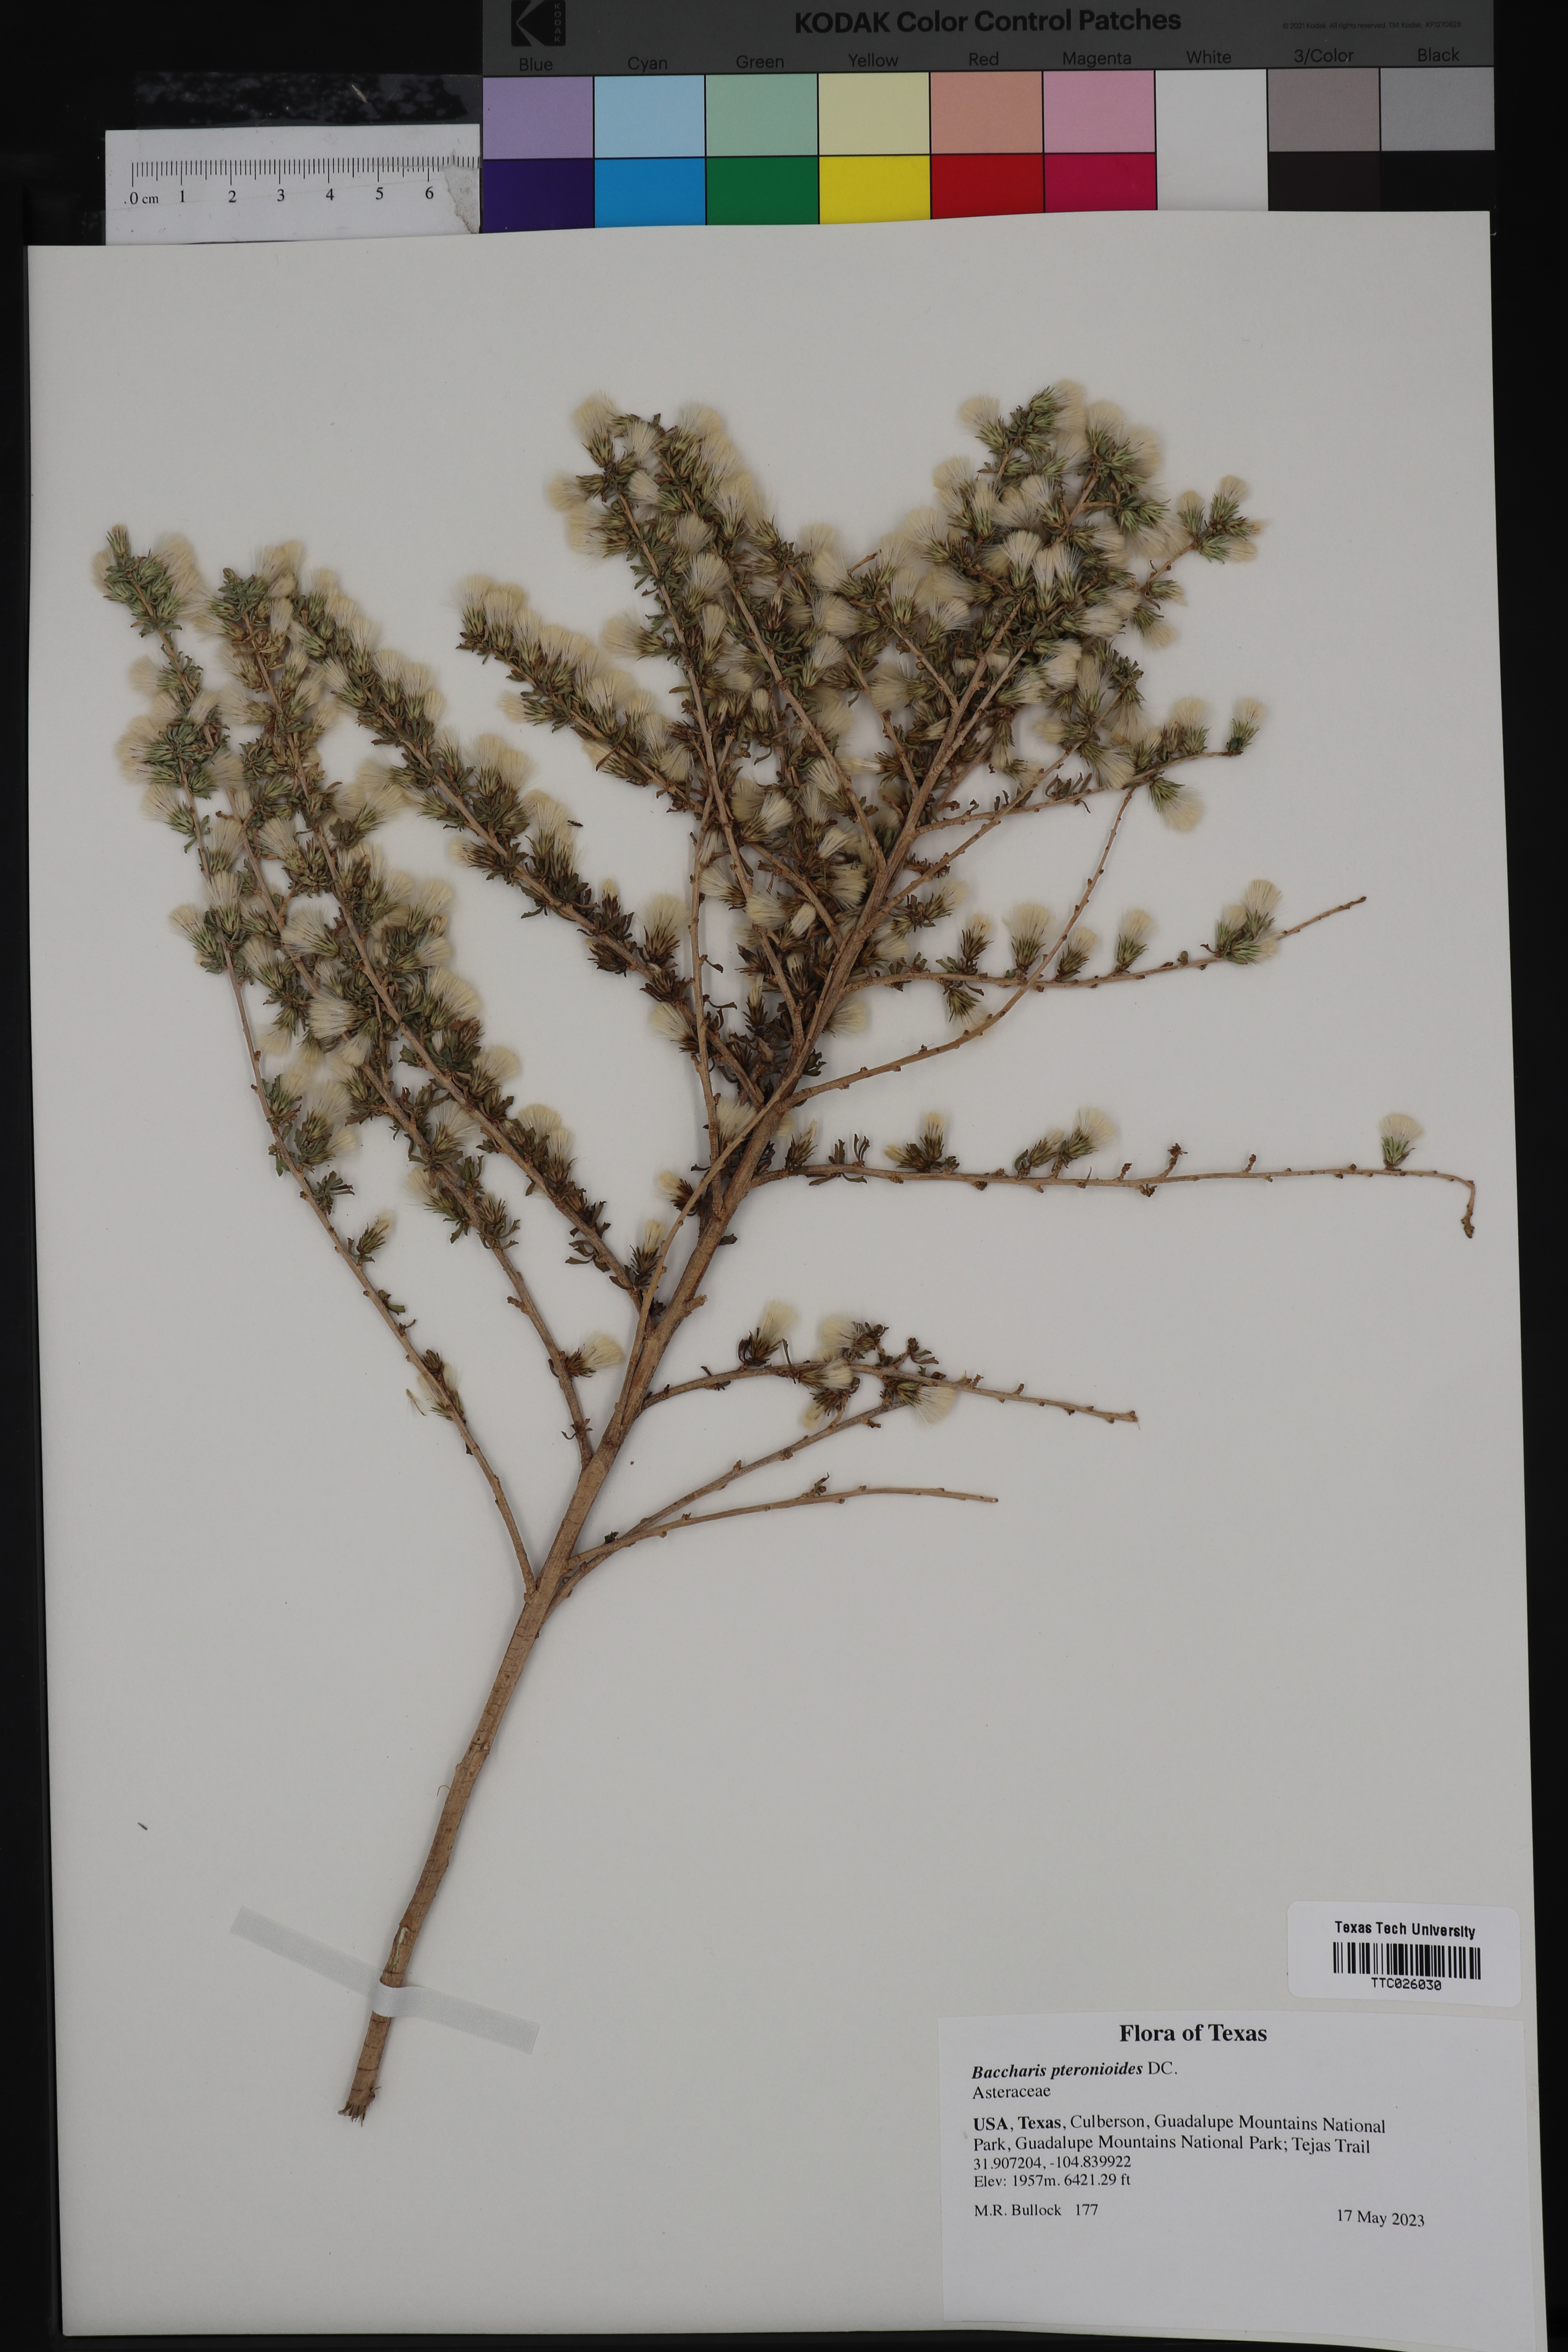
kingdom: Plantae
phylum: Tracheophyta
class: Magnoliopsida
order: Asterales
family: Asteraceae
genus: Baccharis
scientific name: Baccharis pteronioides
